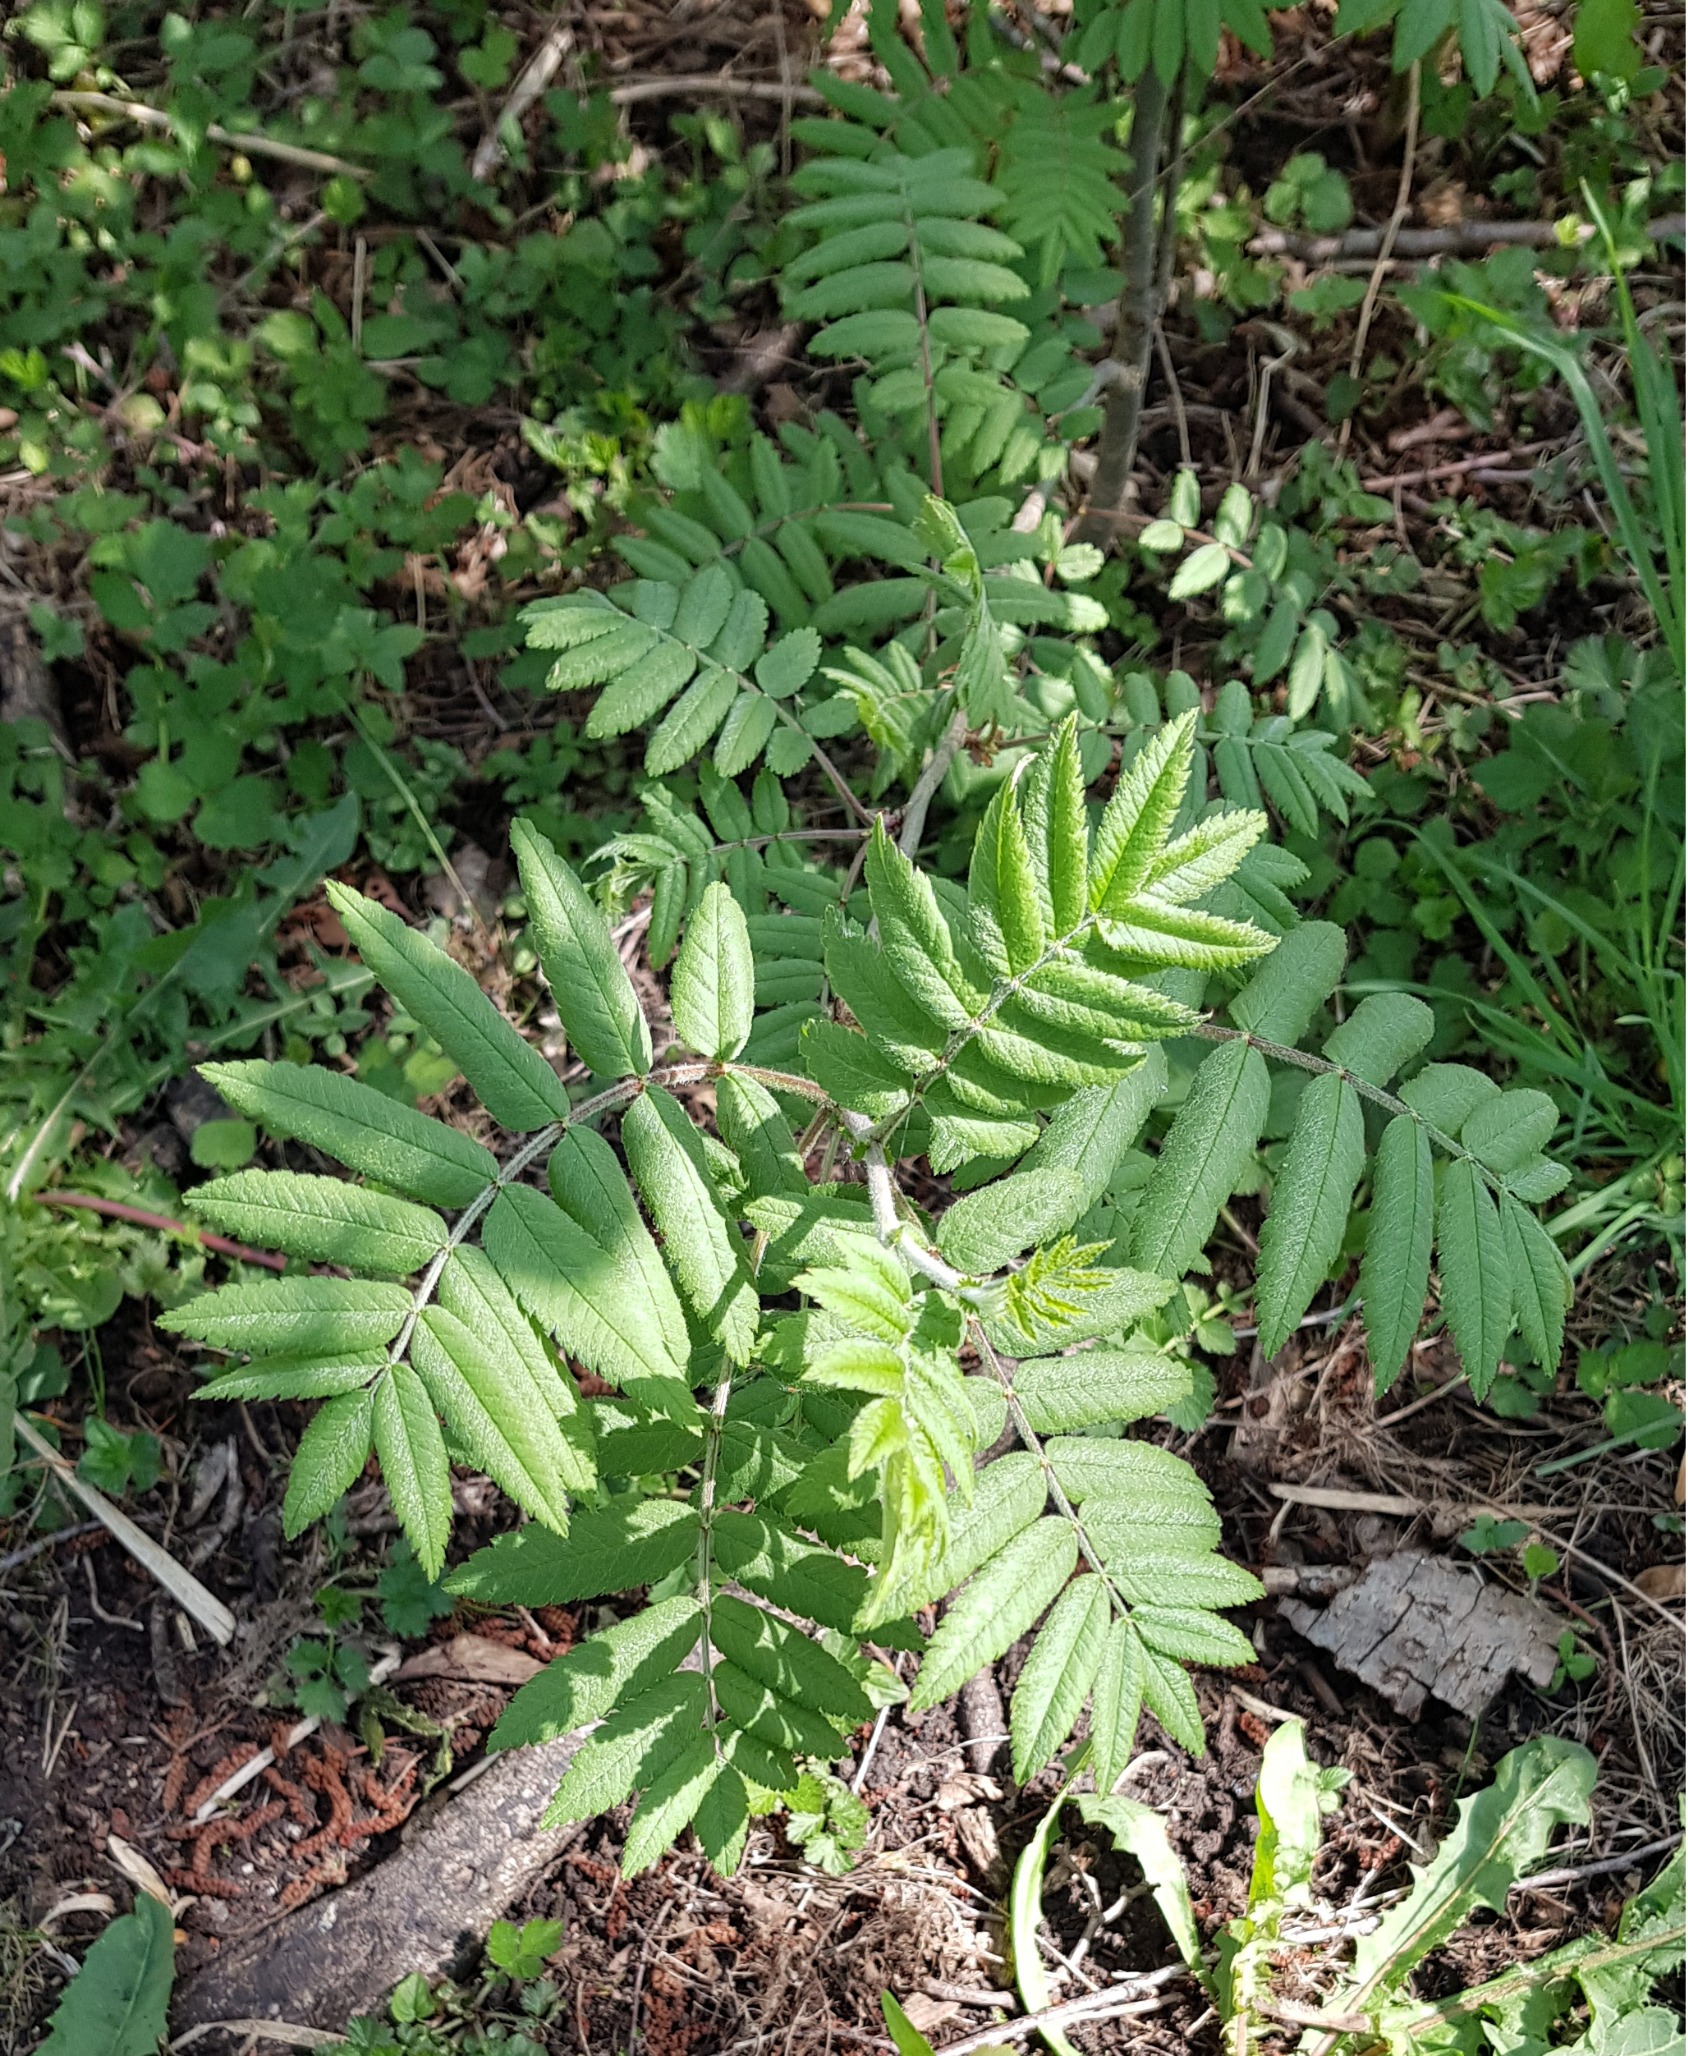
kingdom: Plantae
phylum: Tracheophyta
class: Magnoliopsida
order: Rosales
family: Rosaceae
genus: Sorbus
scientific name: Sorbus aucuparia
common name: Almindelig røn
